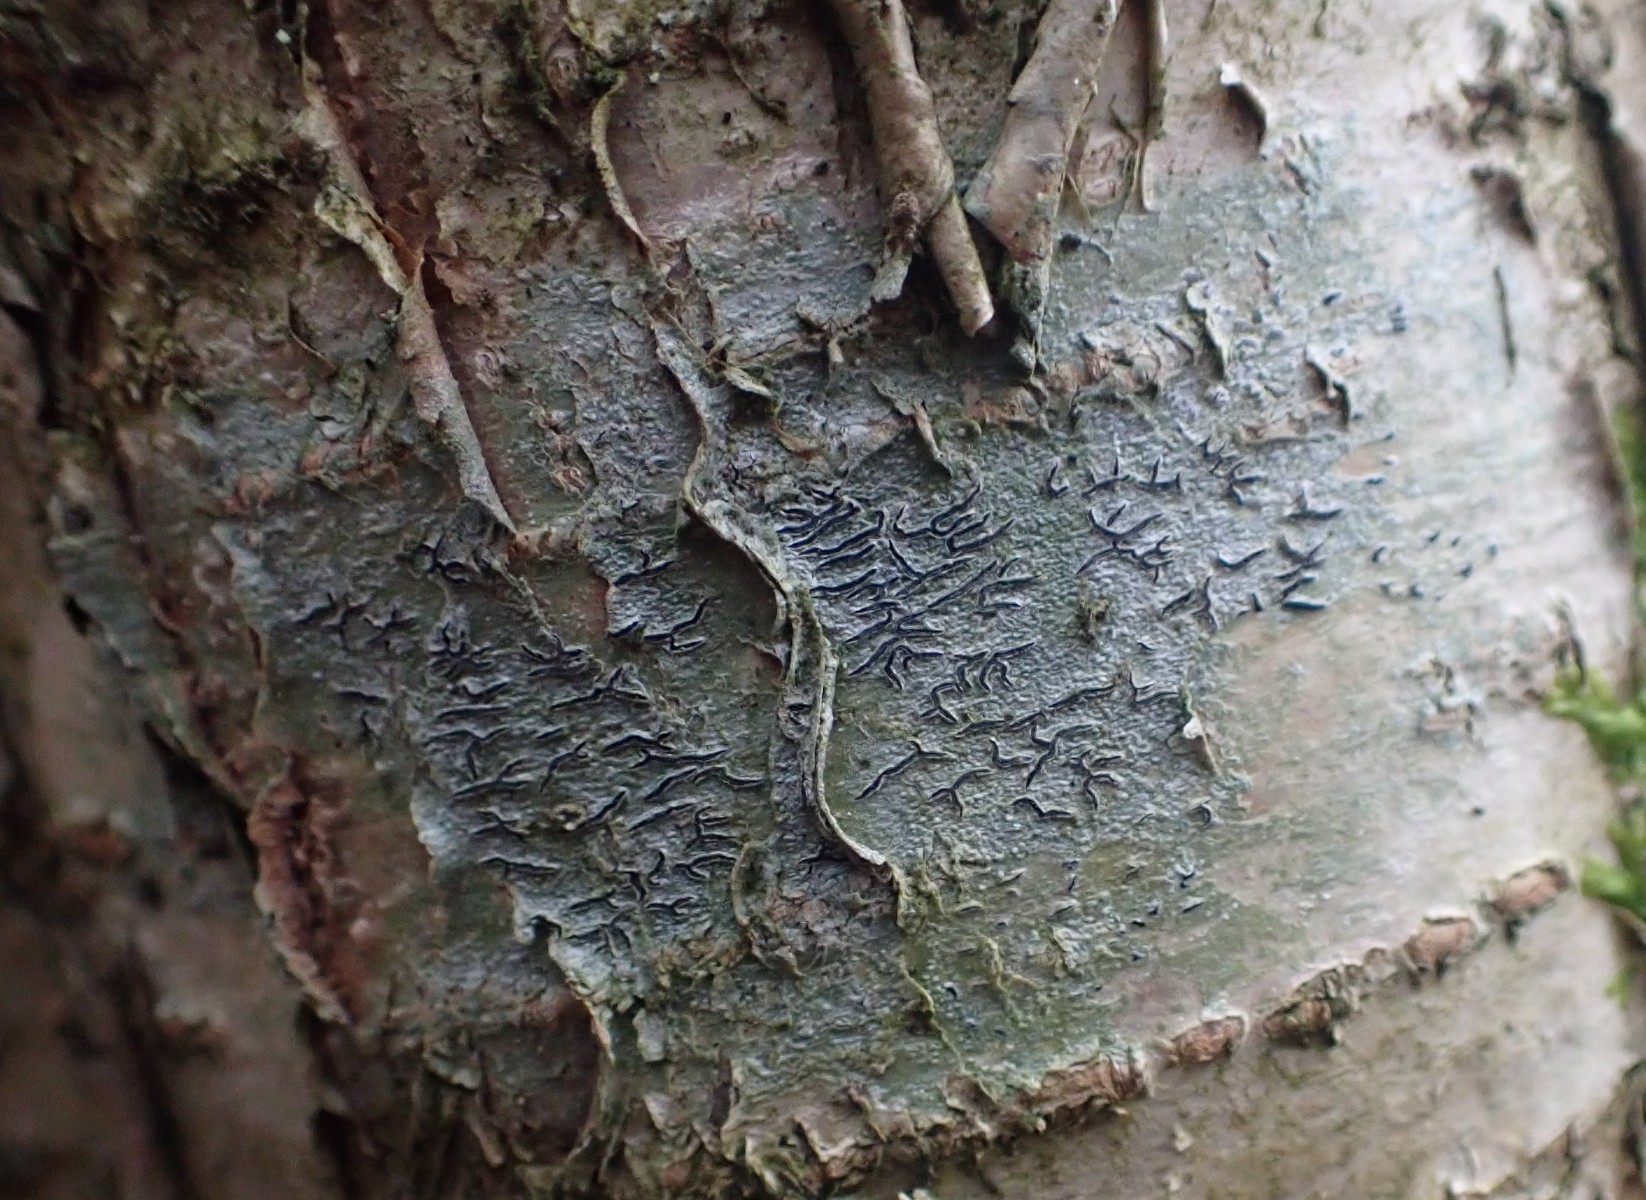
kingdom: Fungi
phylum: Ascomycota
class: Lecanoromycetes
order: Ostropales
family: Graphidaceae
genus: Graphis
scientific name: Graphis scripta
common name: almindelig skriftlav
